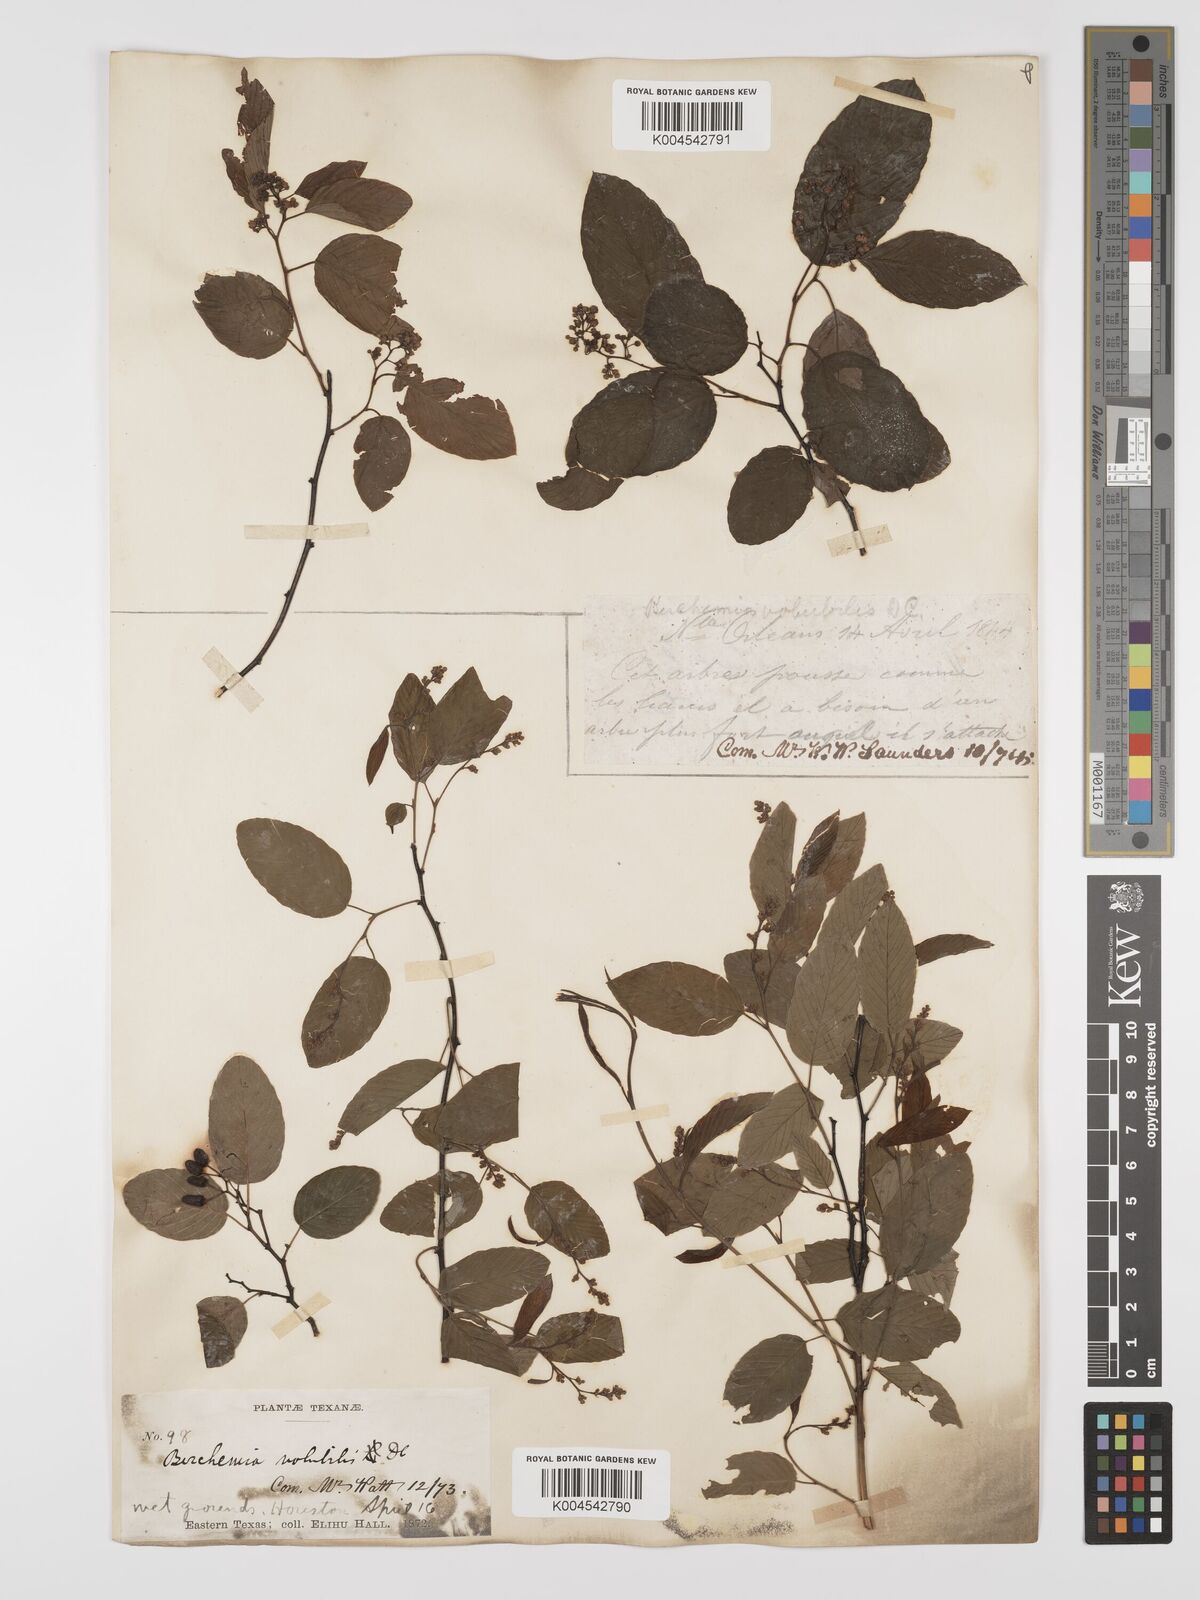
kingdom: Plantae
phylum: Tracheophyta
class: Magnoliopsida
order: Rosales
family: Rhamnaceae
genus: Berchemia
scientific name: Berchemia scandens
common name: Supplejack
